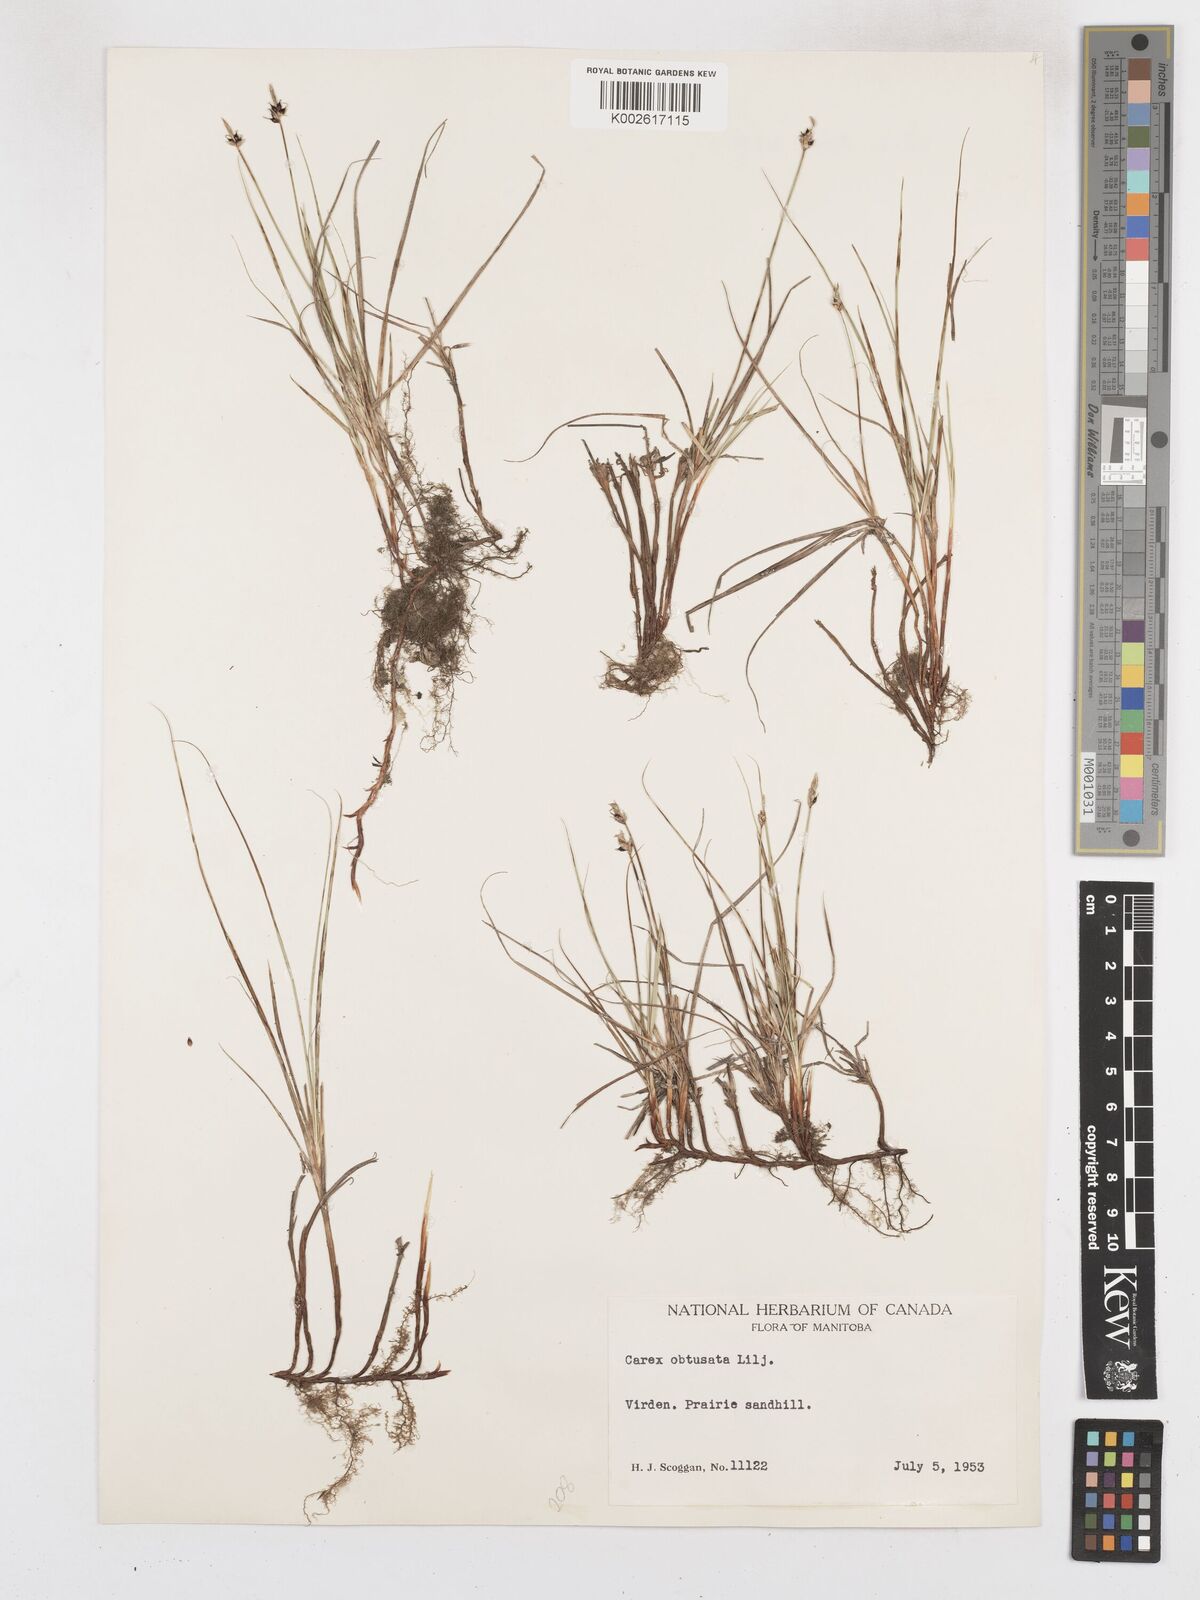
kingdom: Plantae
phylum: Tracheophyta
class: Liliopsida
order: Poales
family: Cyperaceae
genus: Carex
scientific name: Carex obtusata
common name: Blunt sedge
